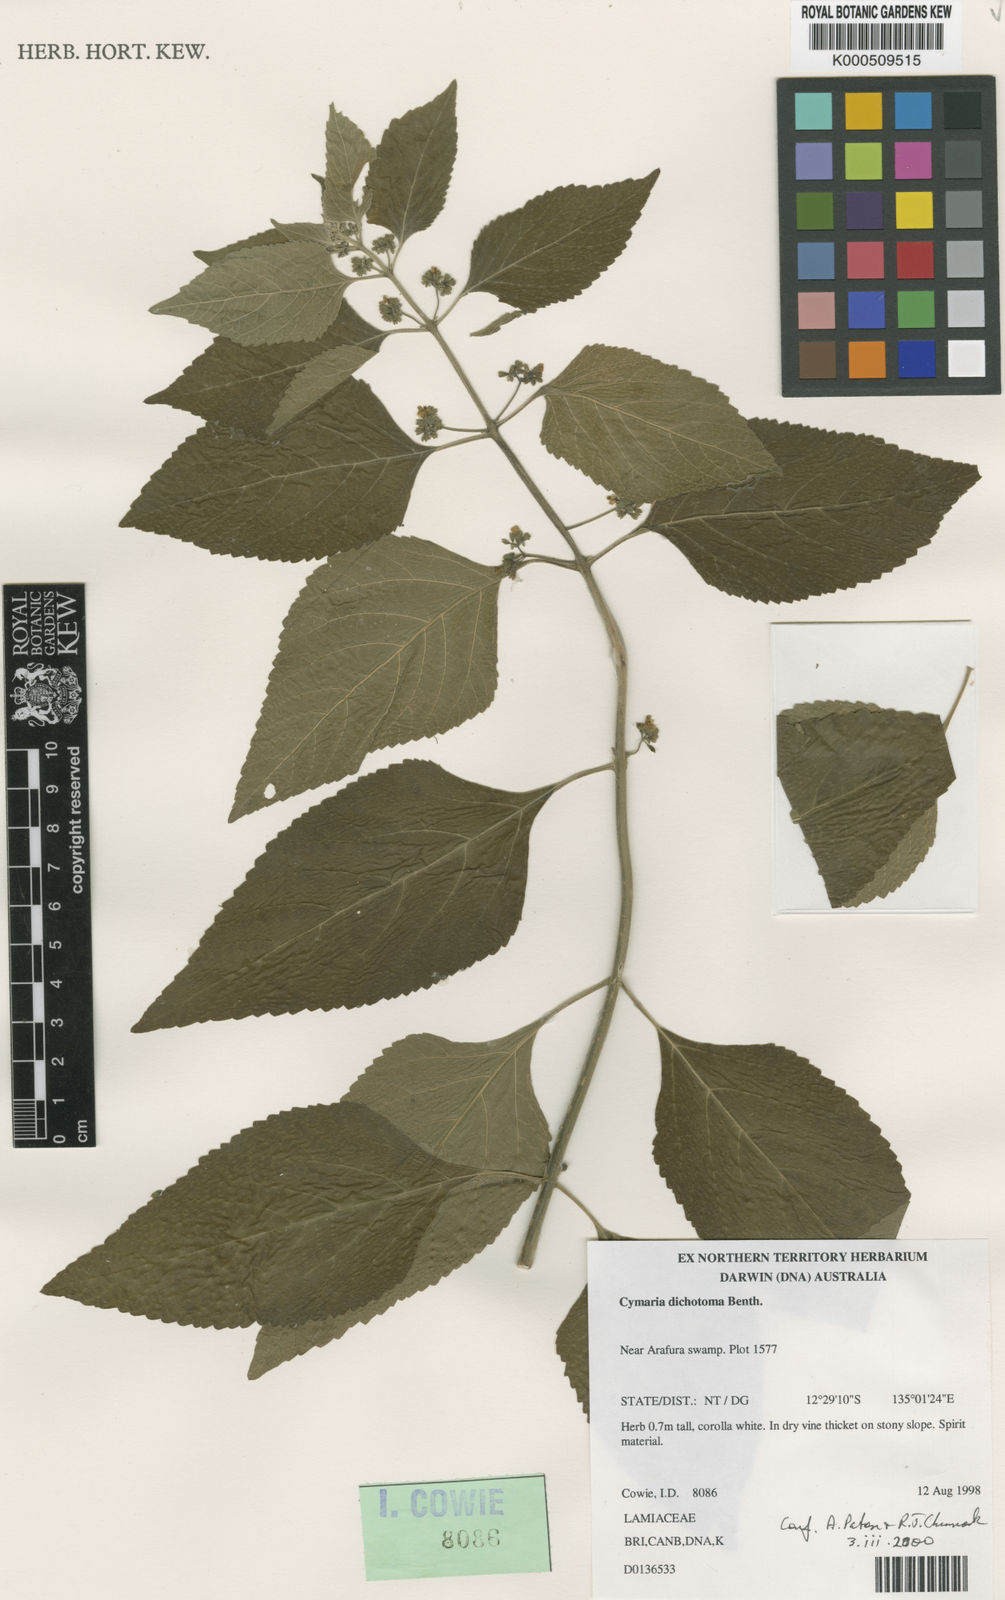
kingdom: Plantae
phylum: Tracheophyta
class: Magnoliopsida
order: Lamiales
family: Lamiaceae
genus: Cymaria
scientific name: Cymaria dichotoma
